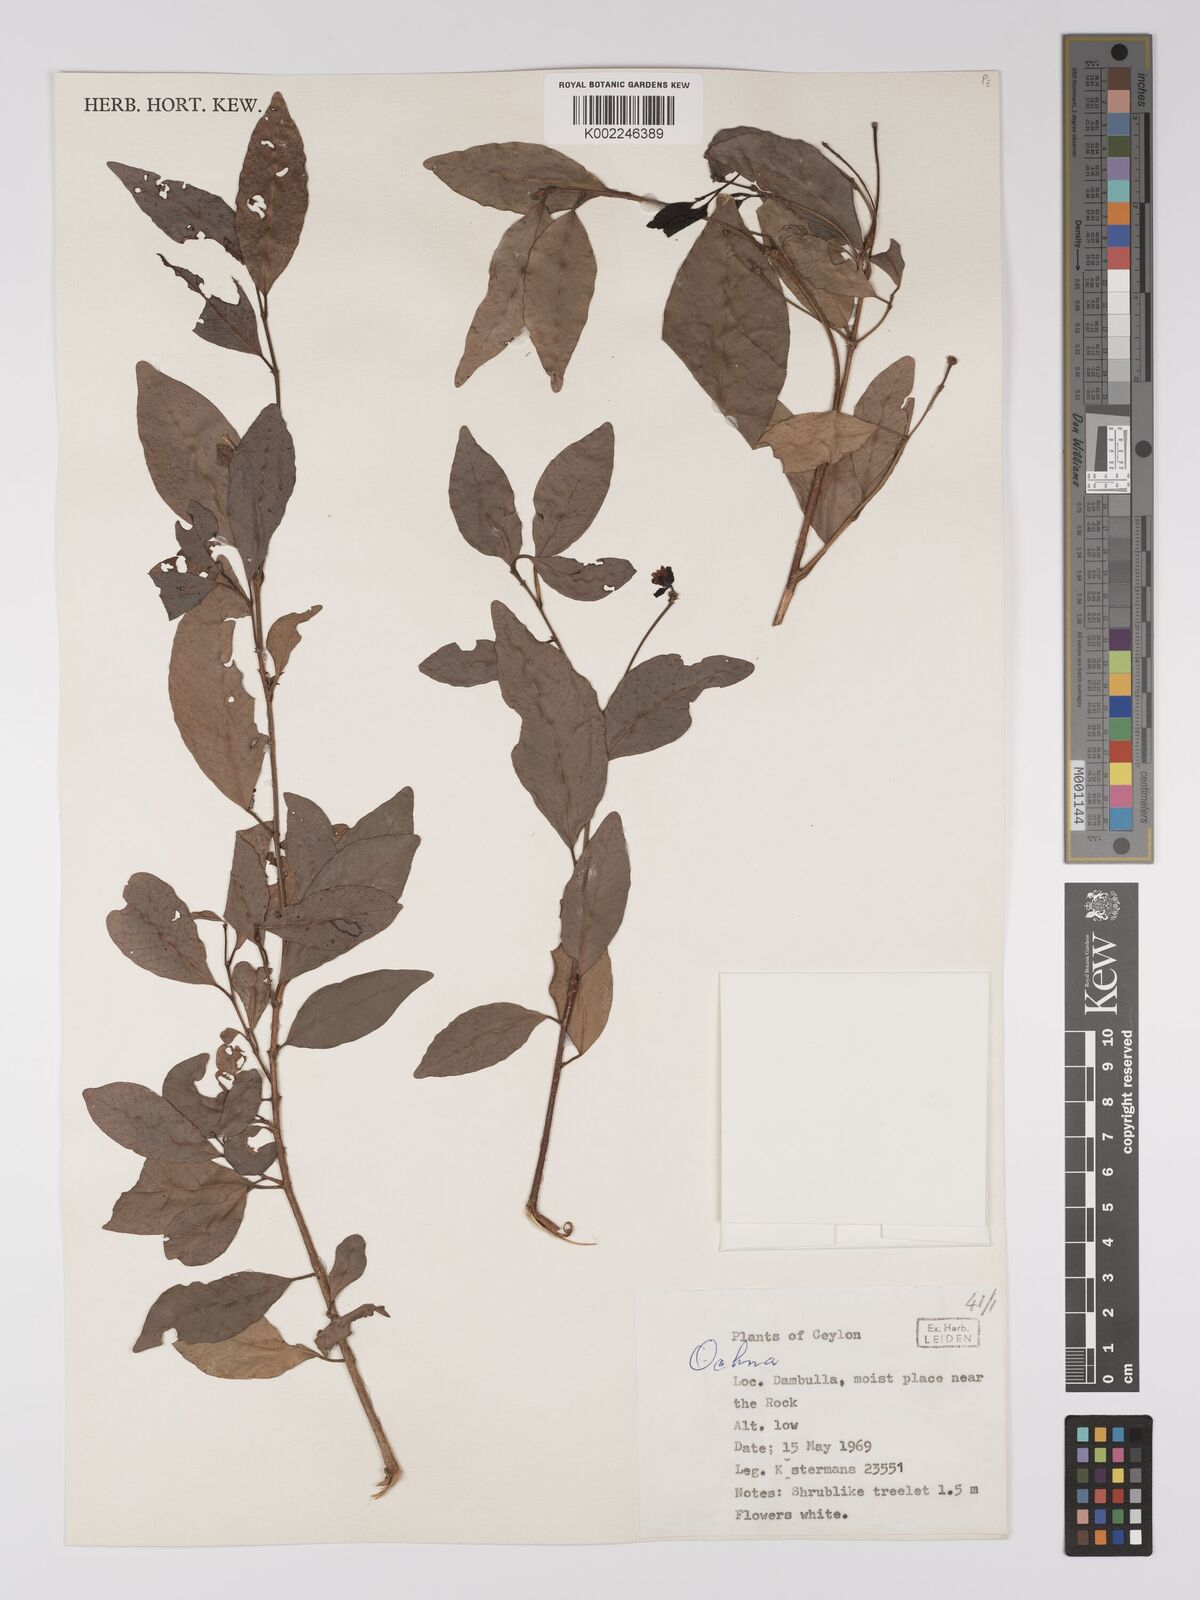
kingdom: Plantae
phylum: Tracheophyta
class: Magnoliopsida
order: Malpighiales
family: Ochnaceae
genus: Ochna
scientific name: Ochna
